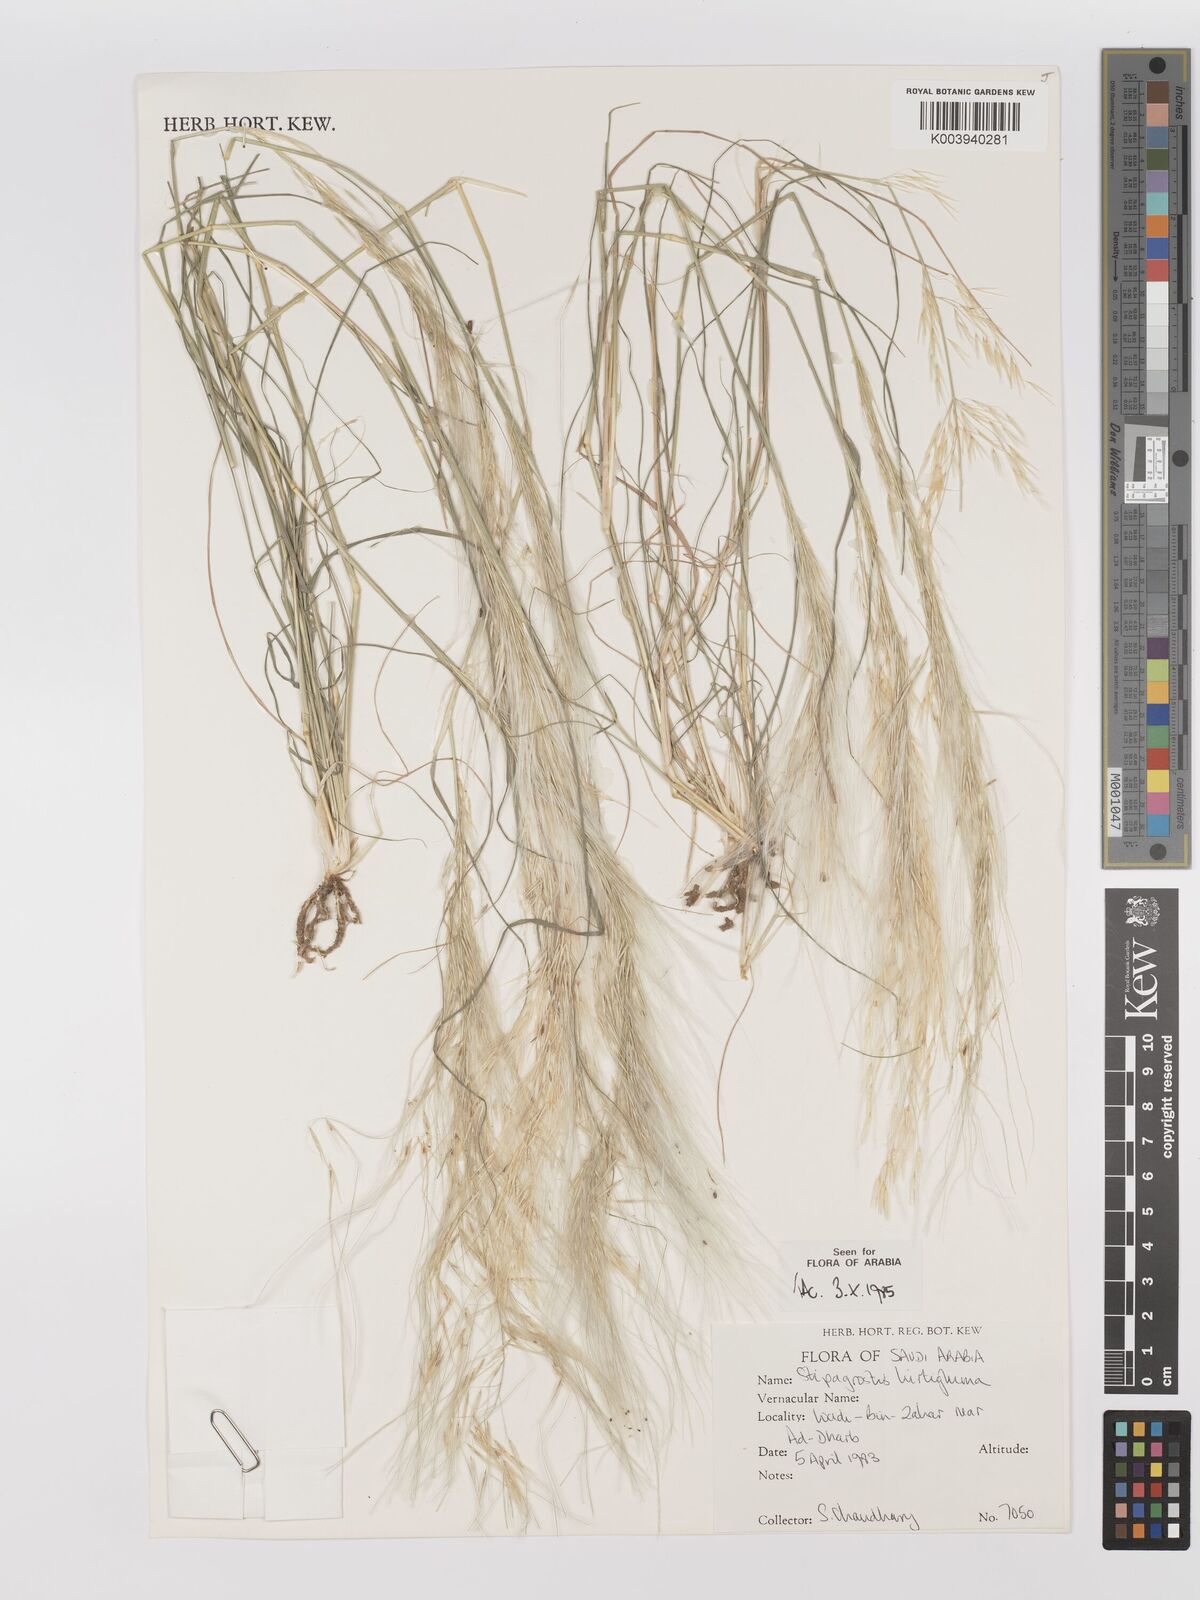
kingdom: Plantae
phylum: Tracheophyta
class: Liliopsida
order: Poales
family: Poaceae
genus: Stipagrostis
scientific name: Stipagrostis hirtigluma
